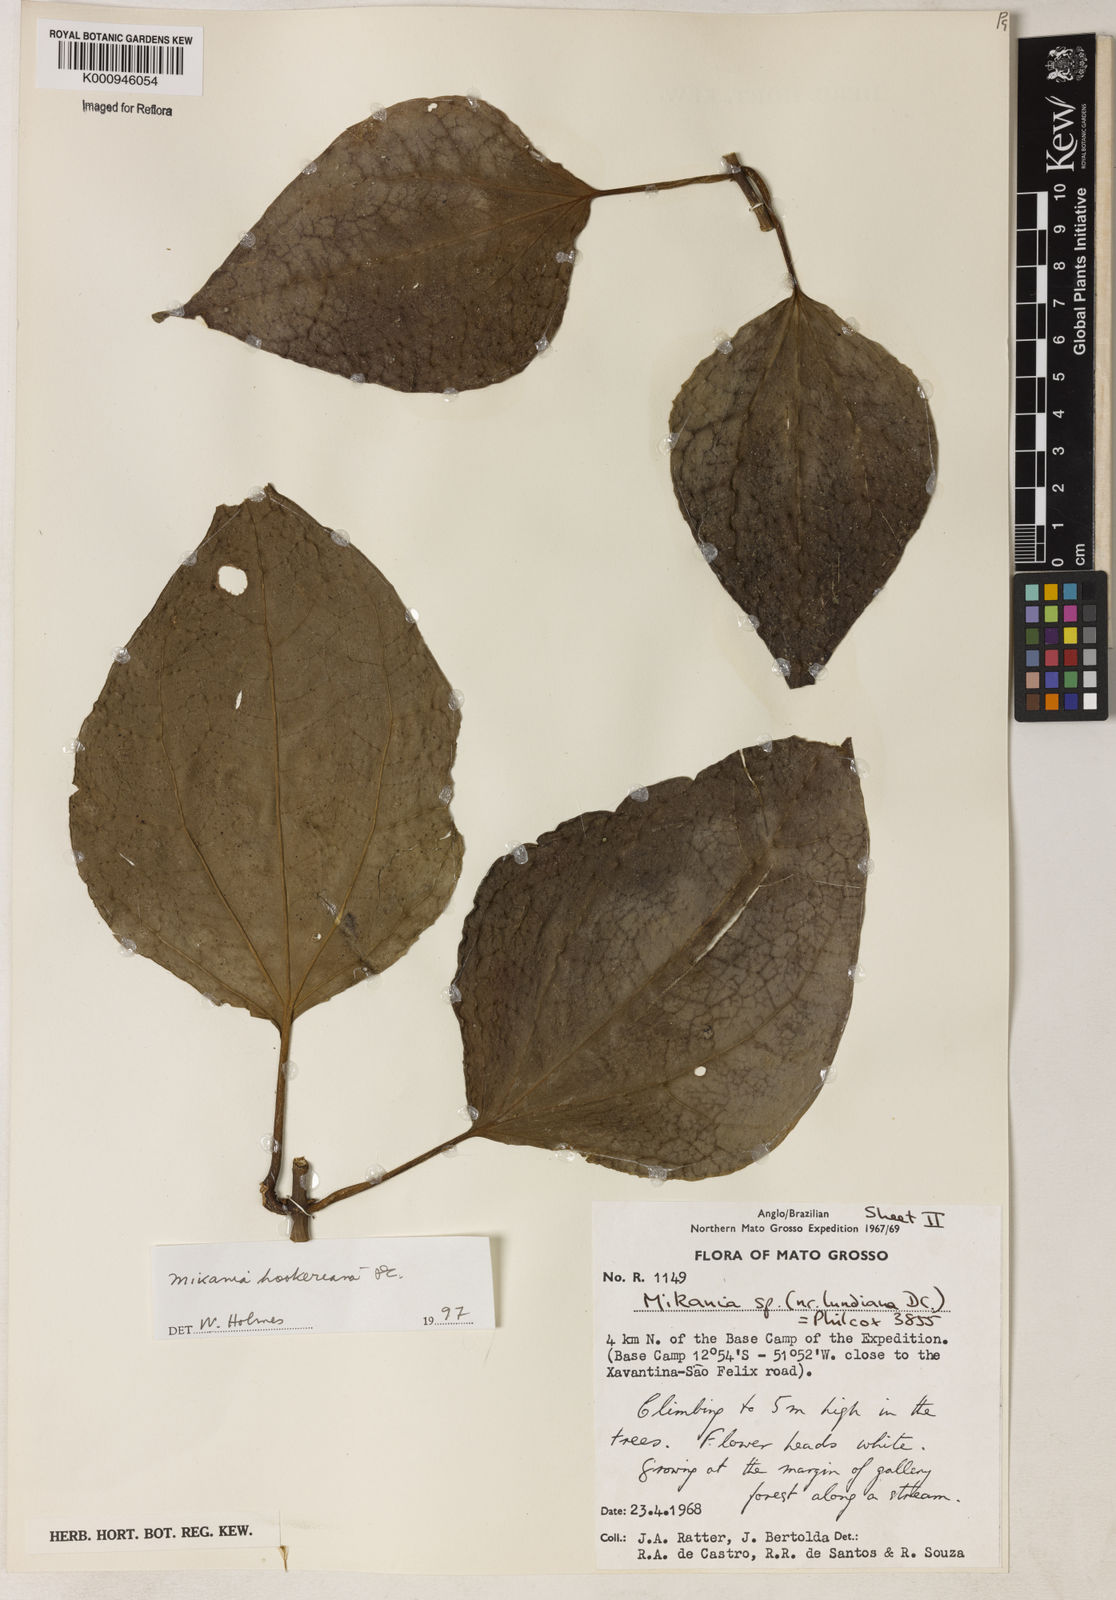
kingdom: Plantae
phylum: Tracheophyta
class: Magnoliopsida
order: Asterales
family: Asteraceae
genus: Mikania
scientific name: Mikania lundiana
